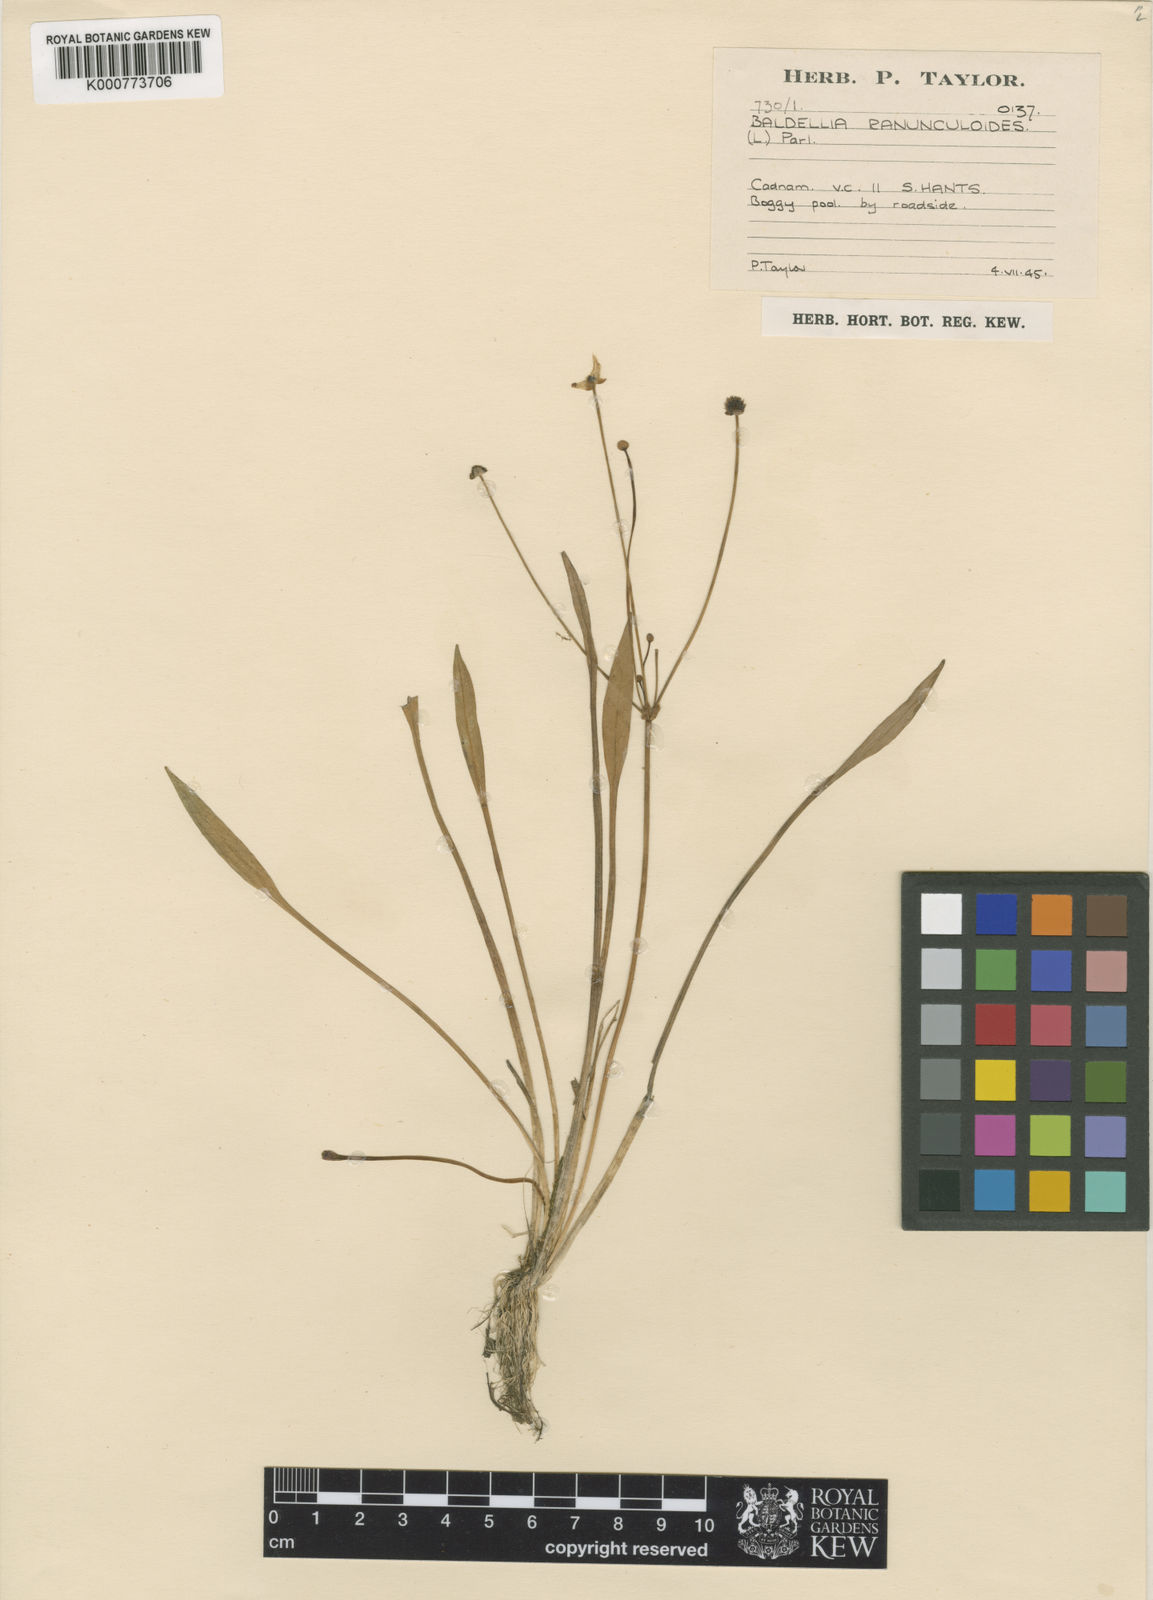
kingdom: Plantae
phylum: Tracheophyta
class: Liliopsida
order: Alismatales
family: Alismataceae
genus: Baldellia
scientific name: Baldellia ranunculoides
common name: Lesser water-plantain
